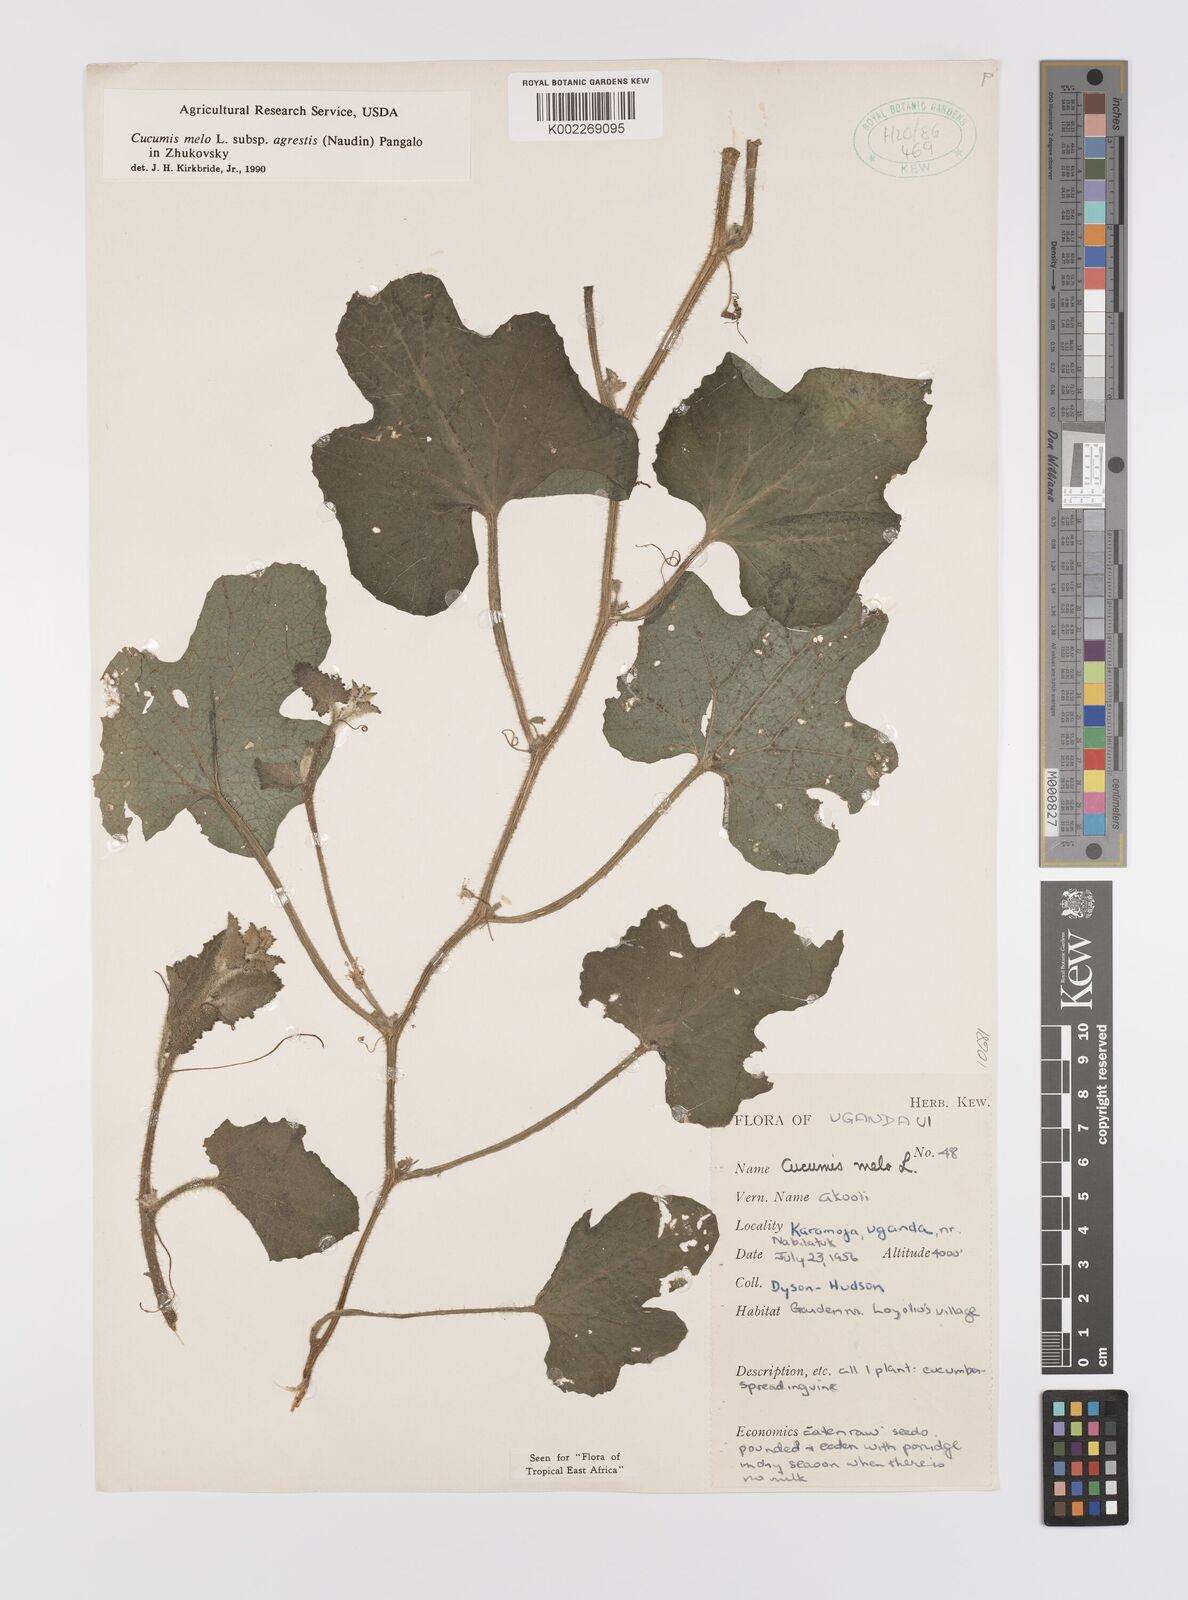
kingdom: Plantae
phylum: Tracheophyta
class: Magnoliopsida
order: Cucurbitales
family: Cucurbitaceae
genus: Cucumis
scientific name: Cucumis melo
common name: Melon
